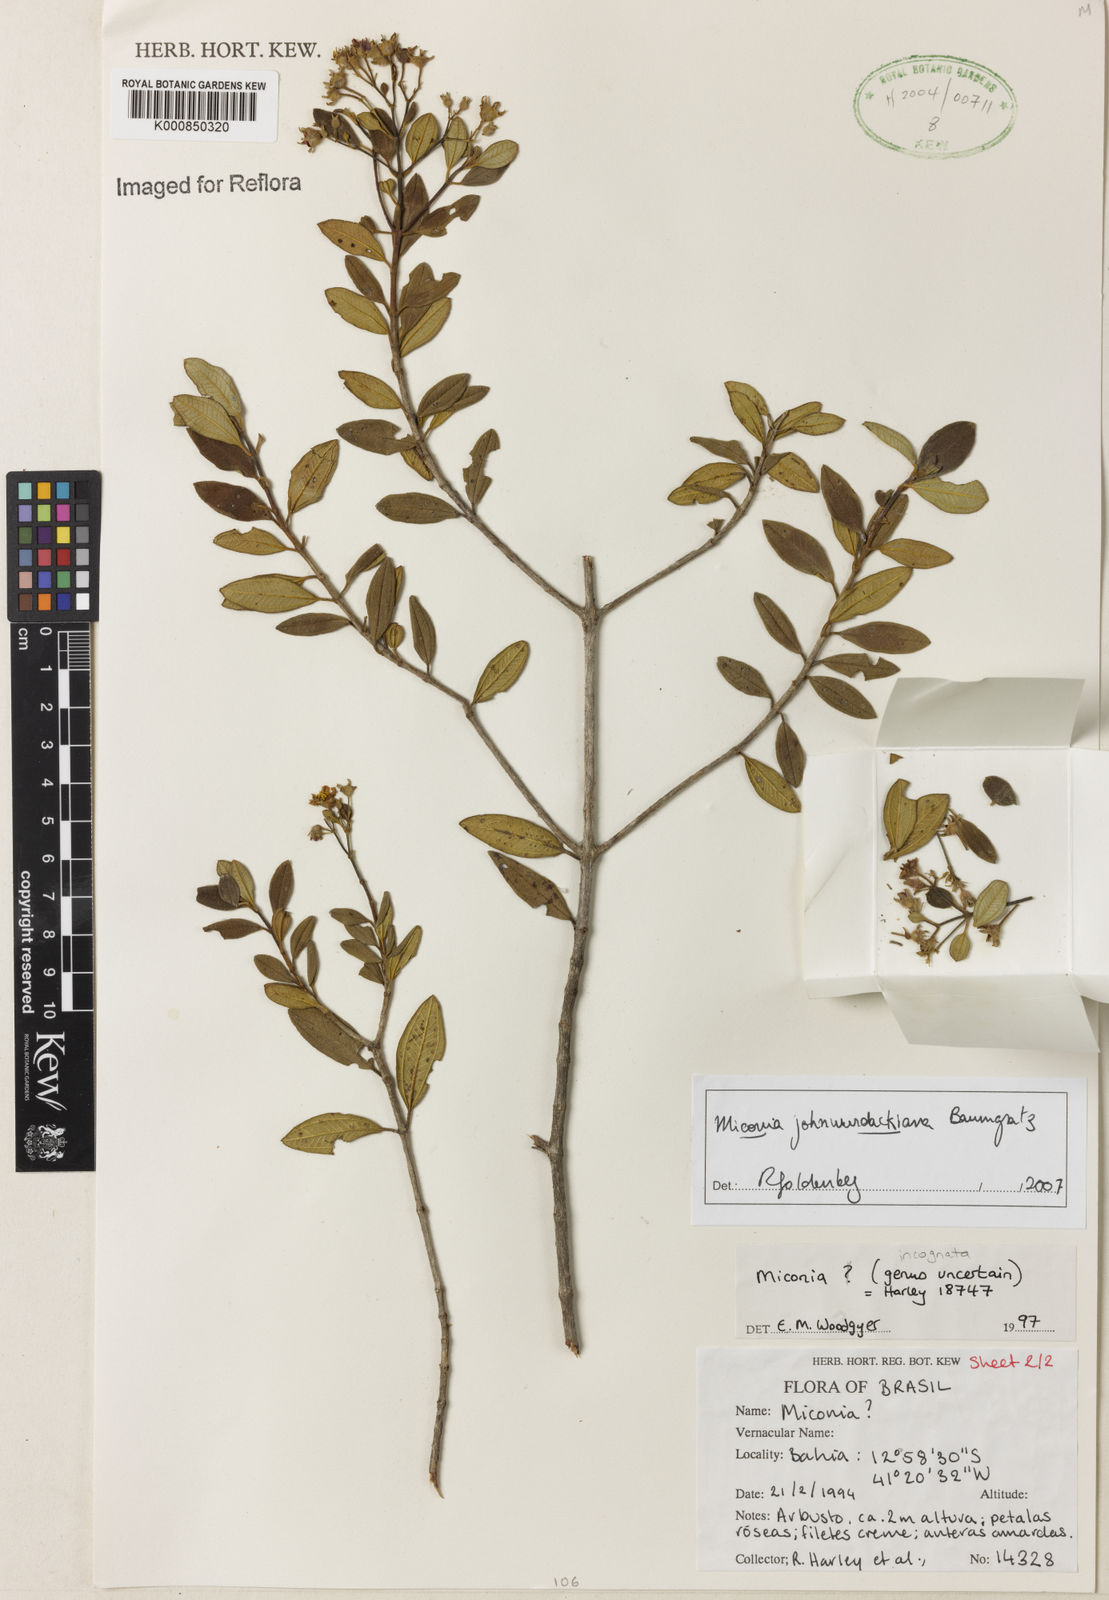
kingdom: Plantae
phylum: Tracheophyta
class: Magnoliopsida
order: Myrtales
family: Melastomataceae
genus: Miconia
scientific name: Miconia
